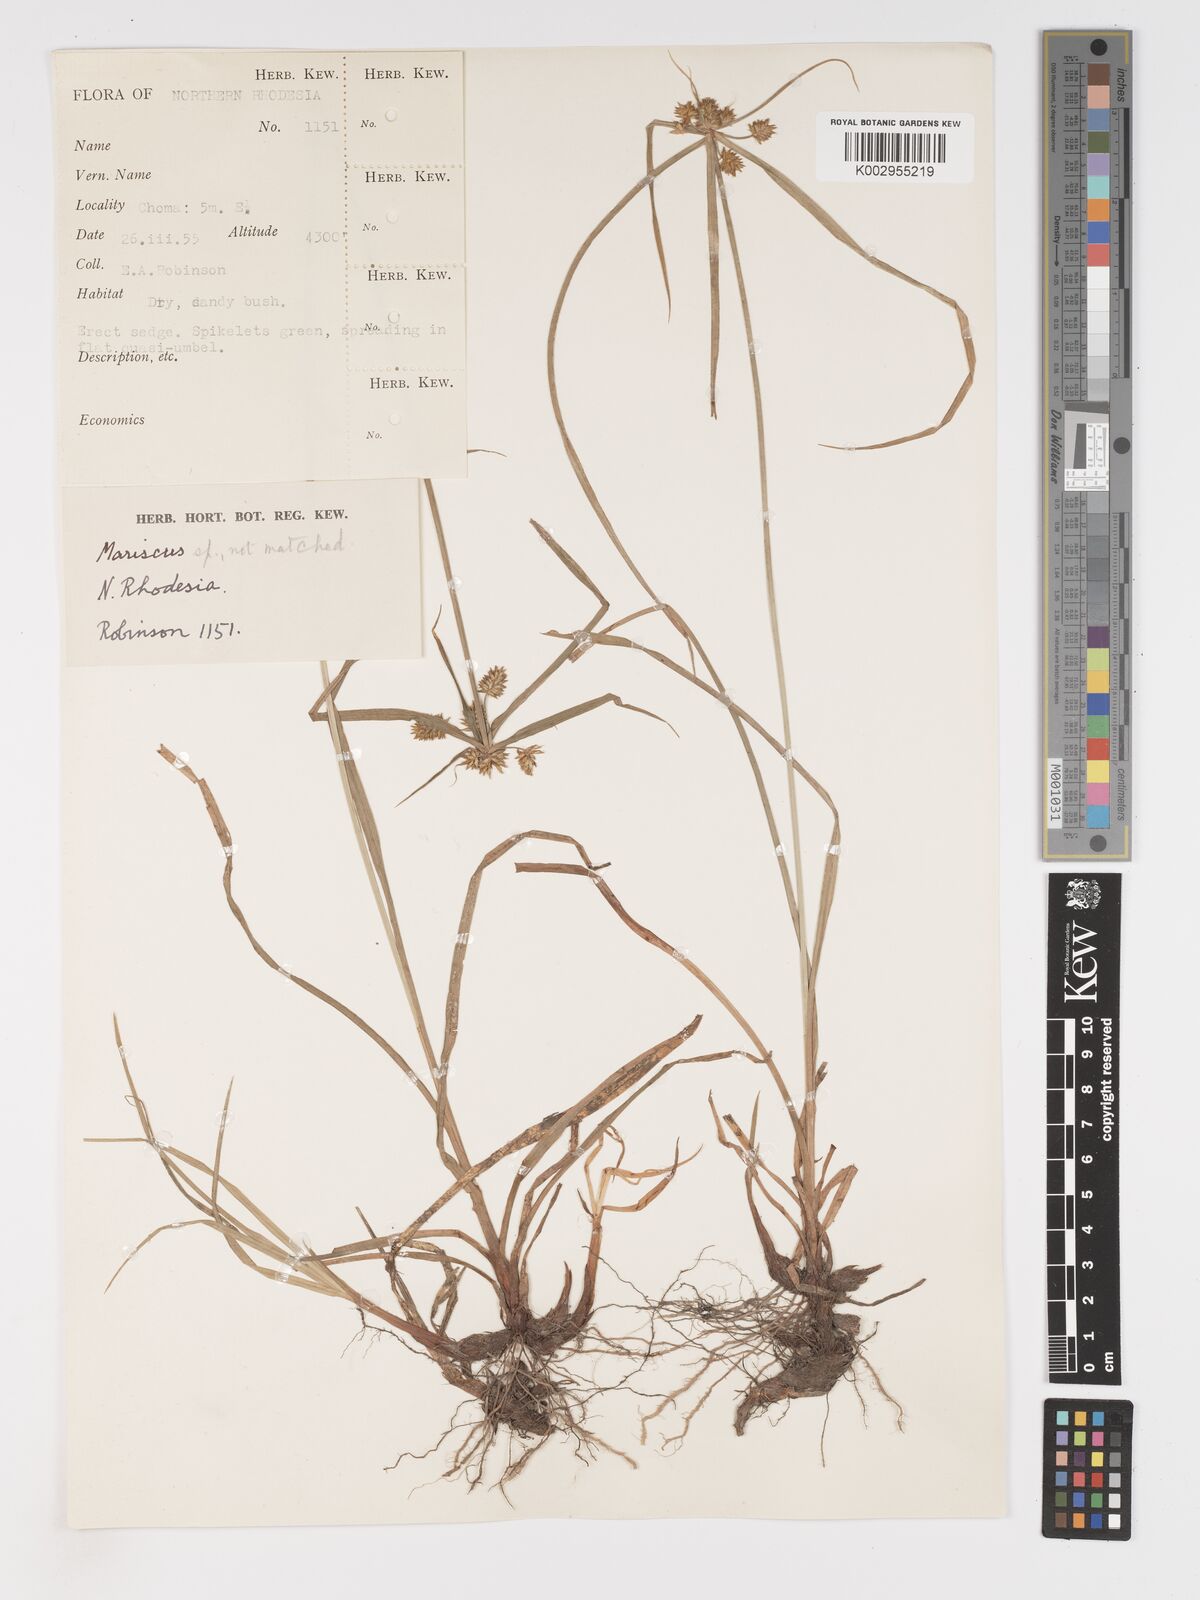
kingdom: Plantae
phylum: Tracheophyta
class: Liliopsida
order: Poales
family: Cyperaceae
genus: Cyperus
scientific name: Cyperus
